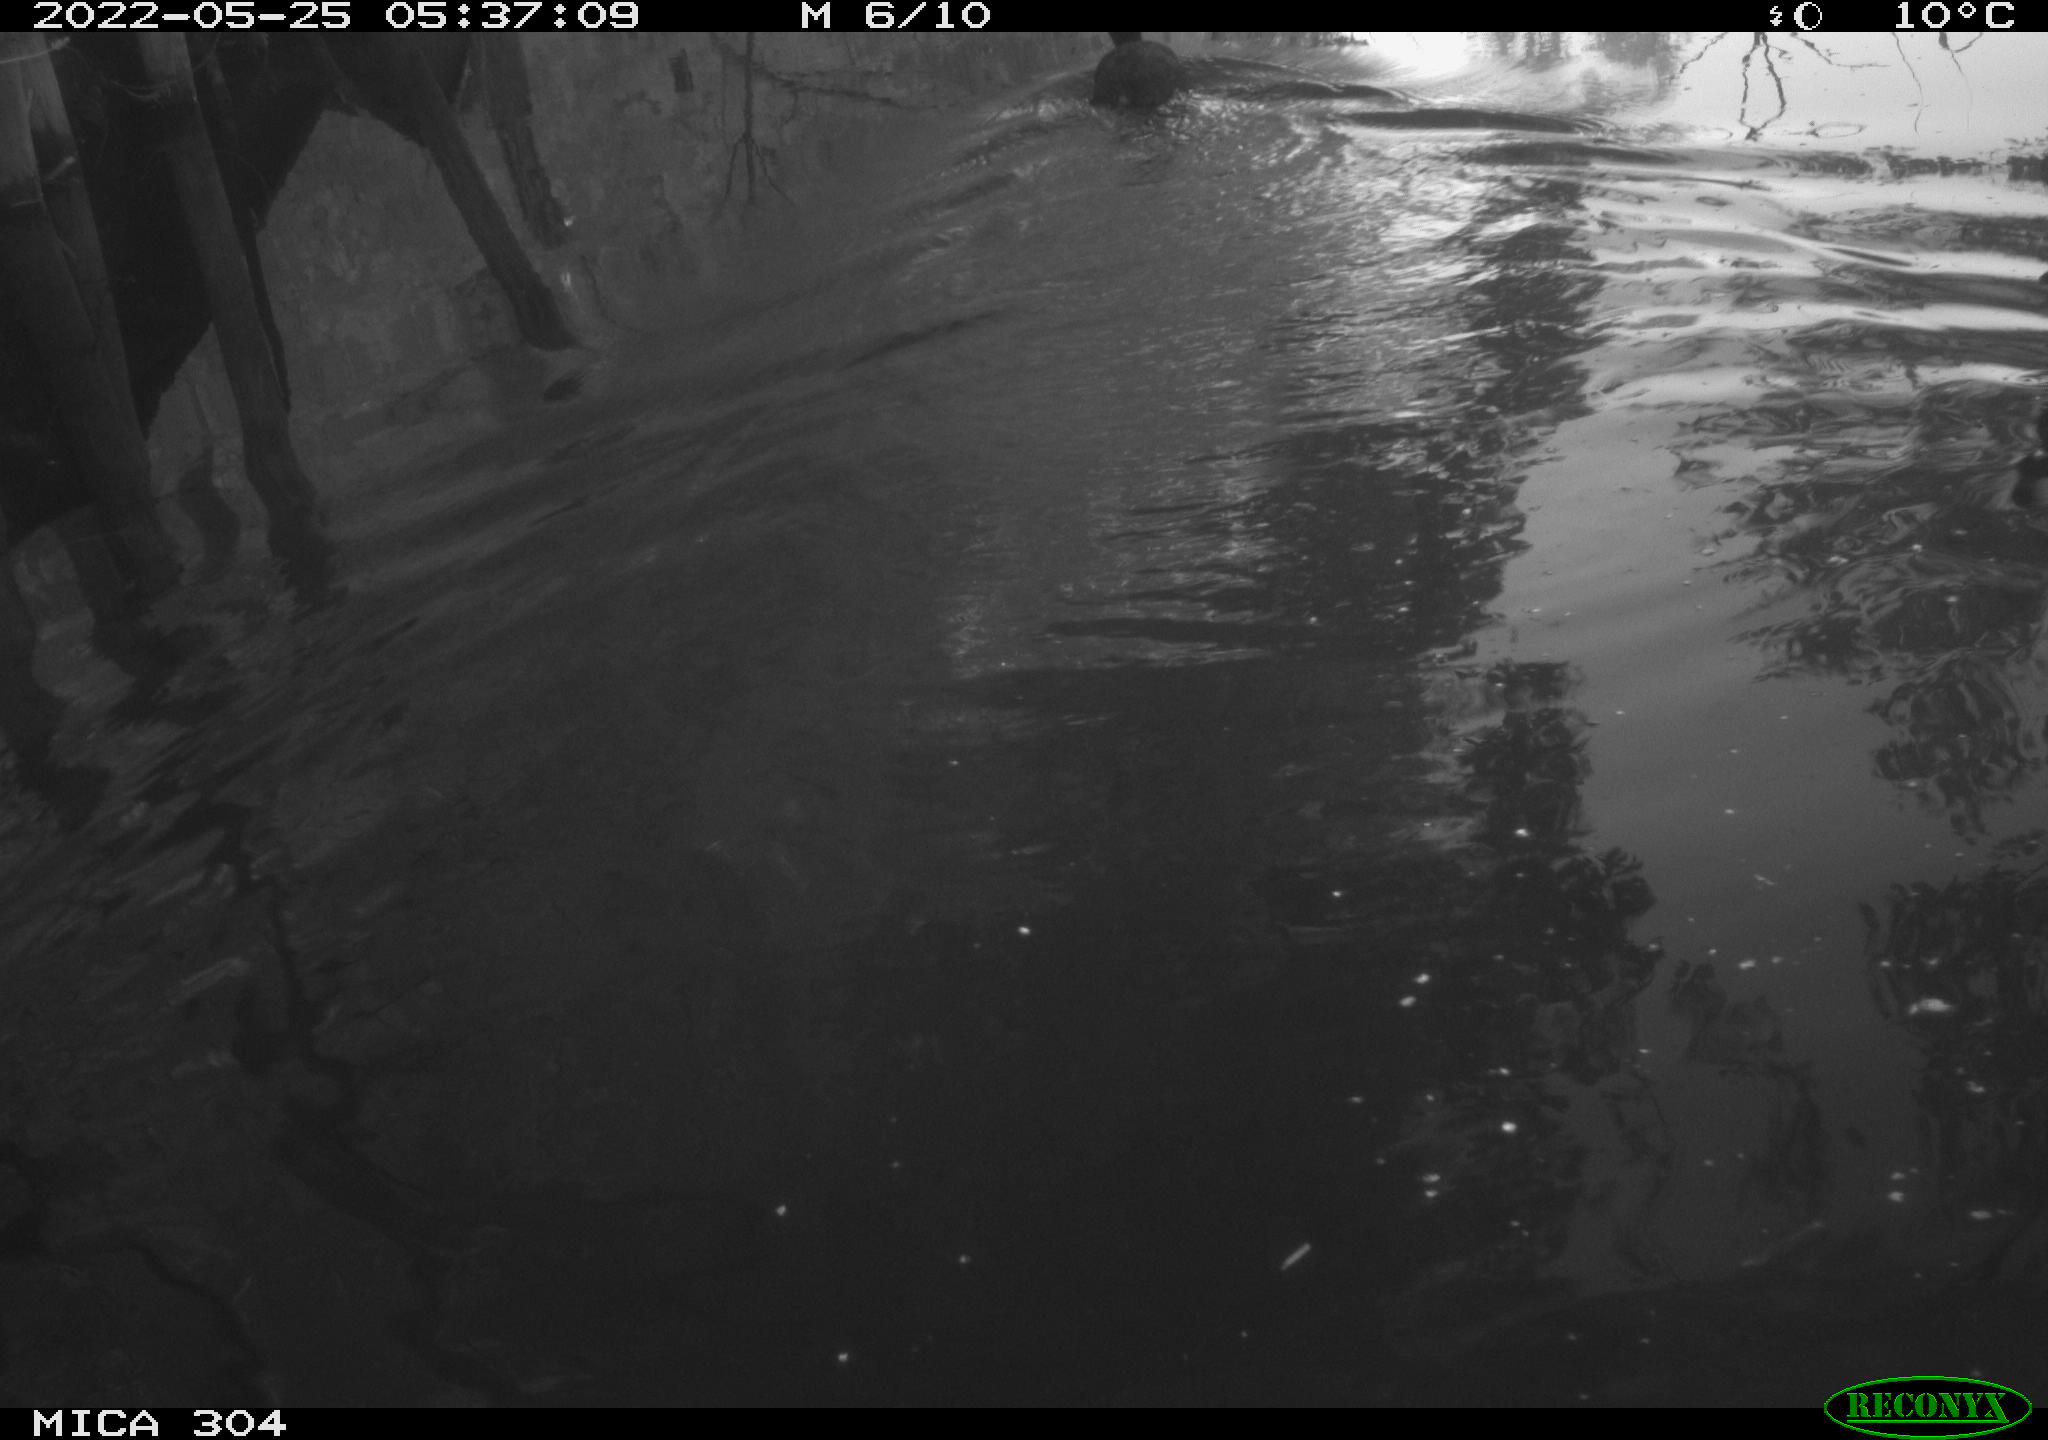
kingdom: Animalia
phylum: Chordata
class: Aves
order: Gruiformes
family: Rallidae
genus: Fulica
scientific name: Fulica atra
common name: Eurasian coot
